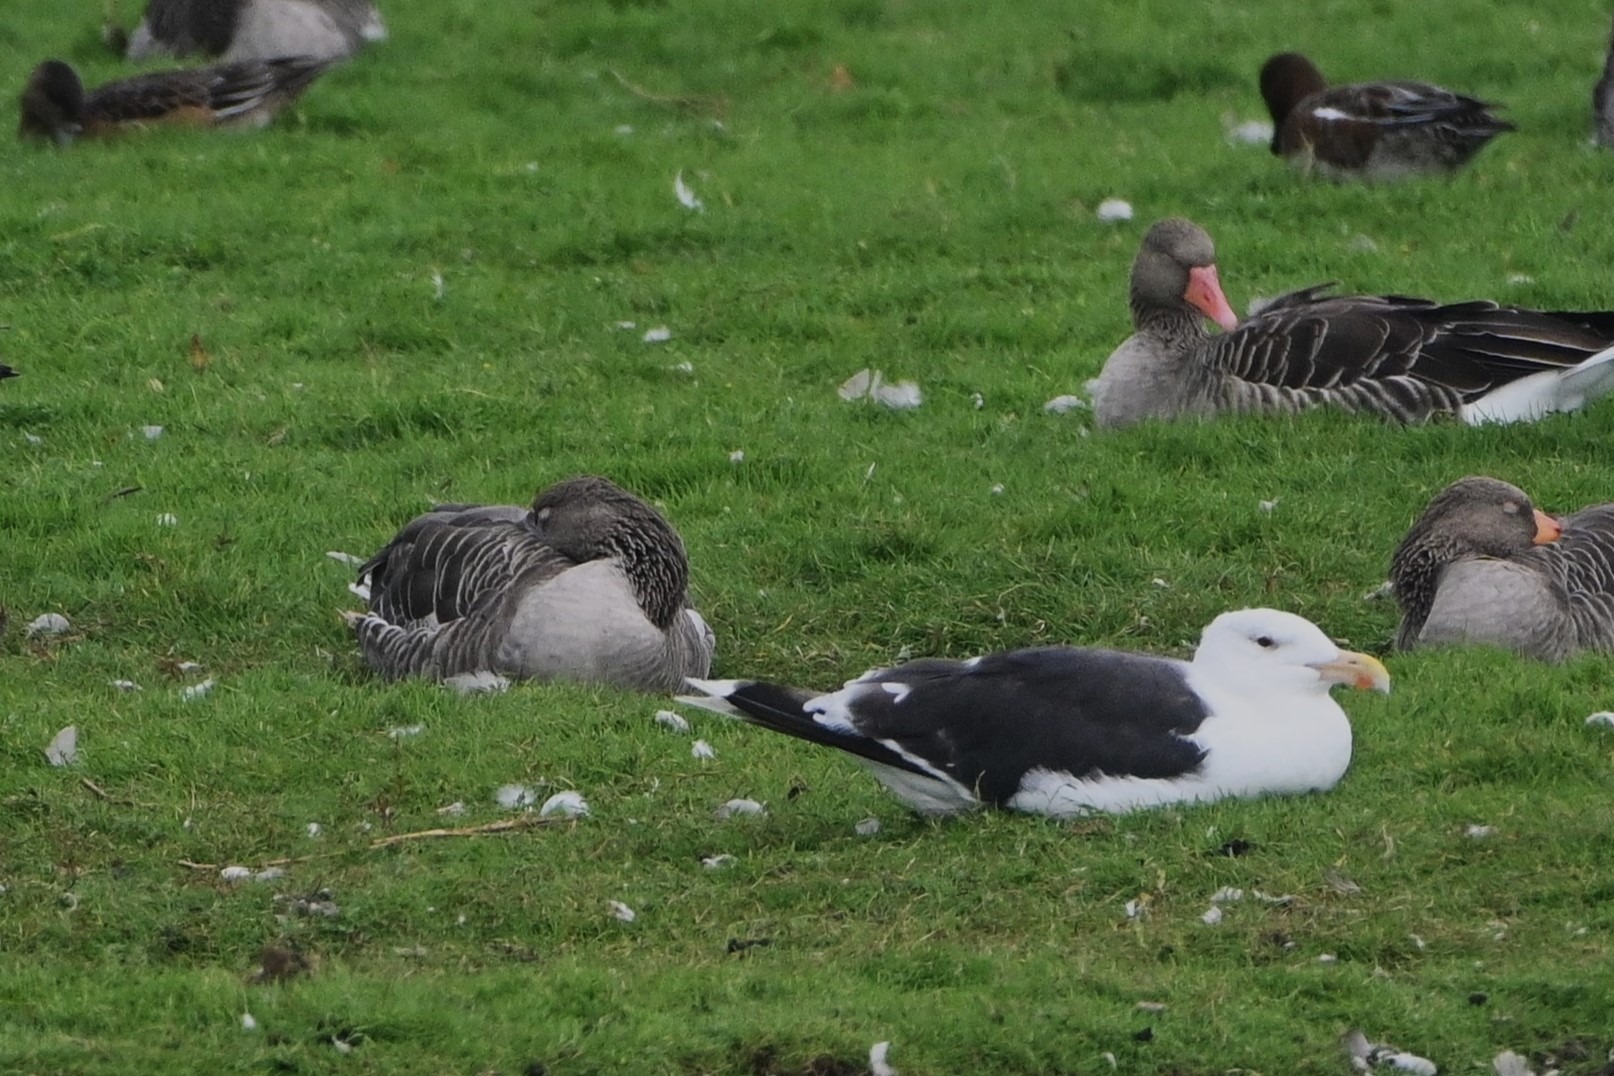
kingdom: Animalia
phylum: Chordata
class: Aves
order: Charadriiformes
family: Laridae
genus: Larus
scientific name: Larus marinus
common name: Svartbag
